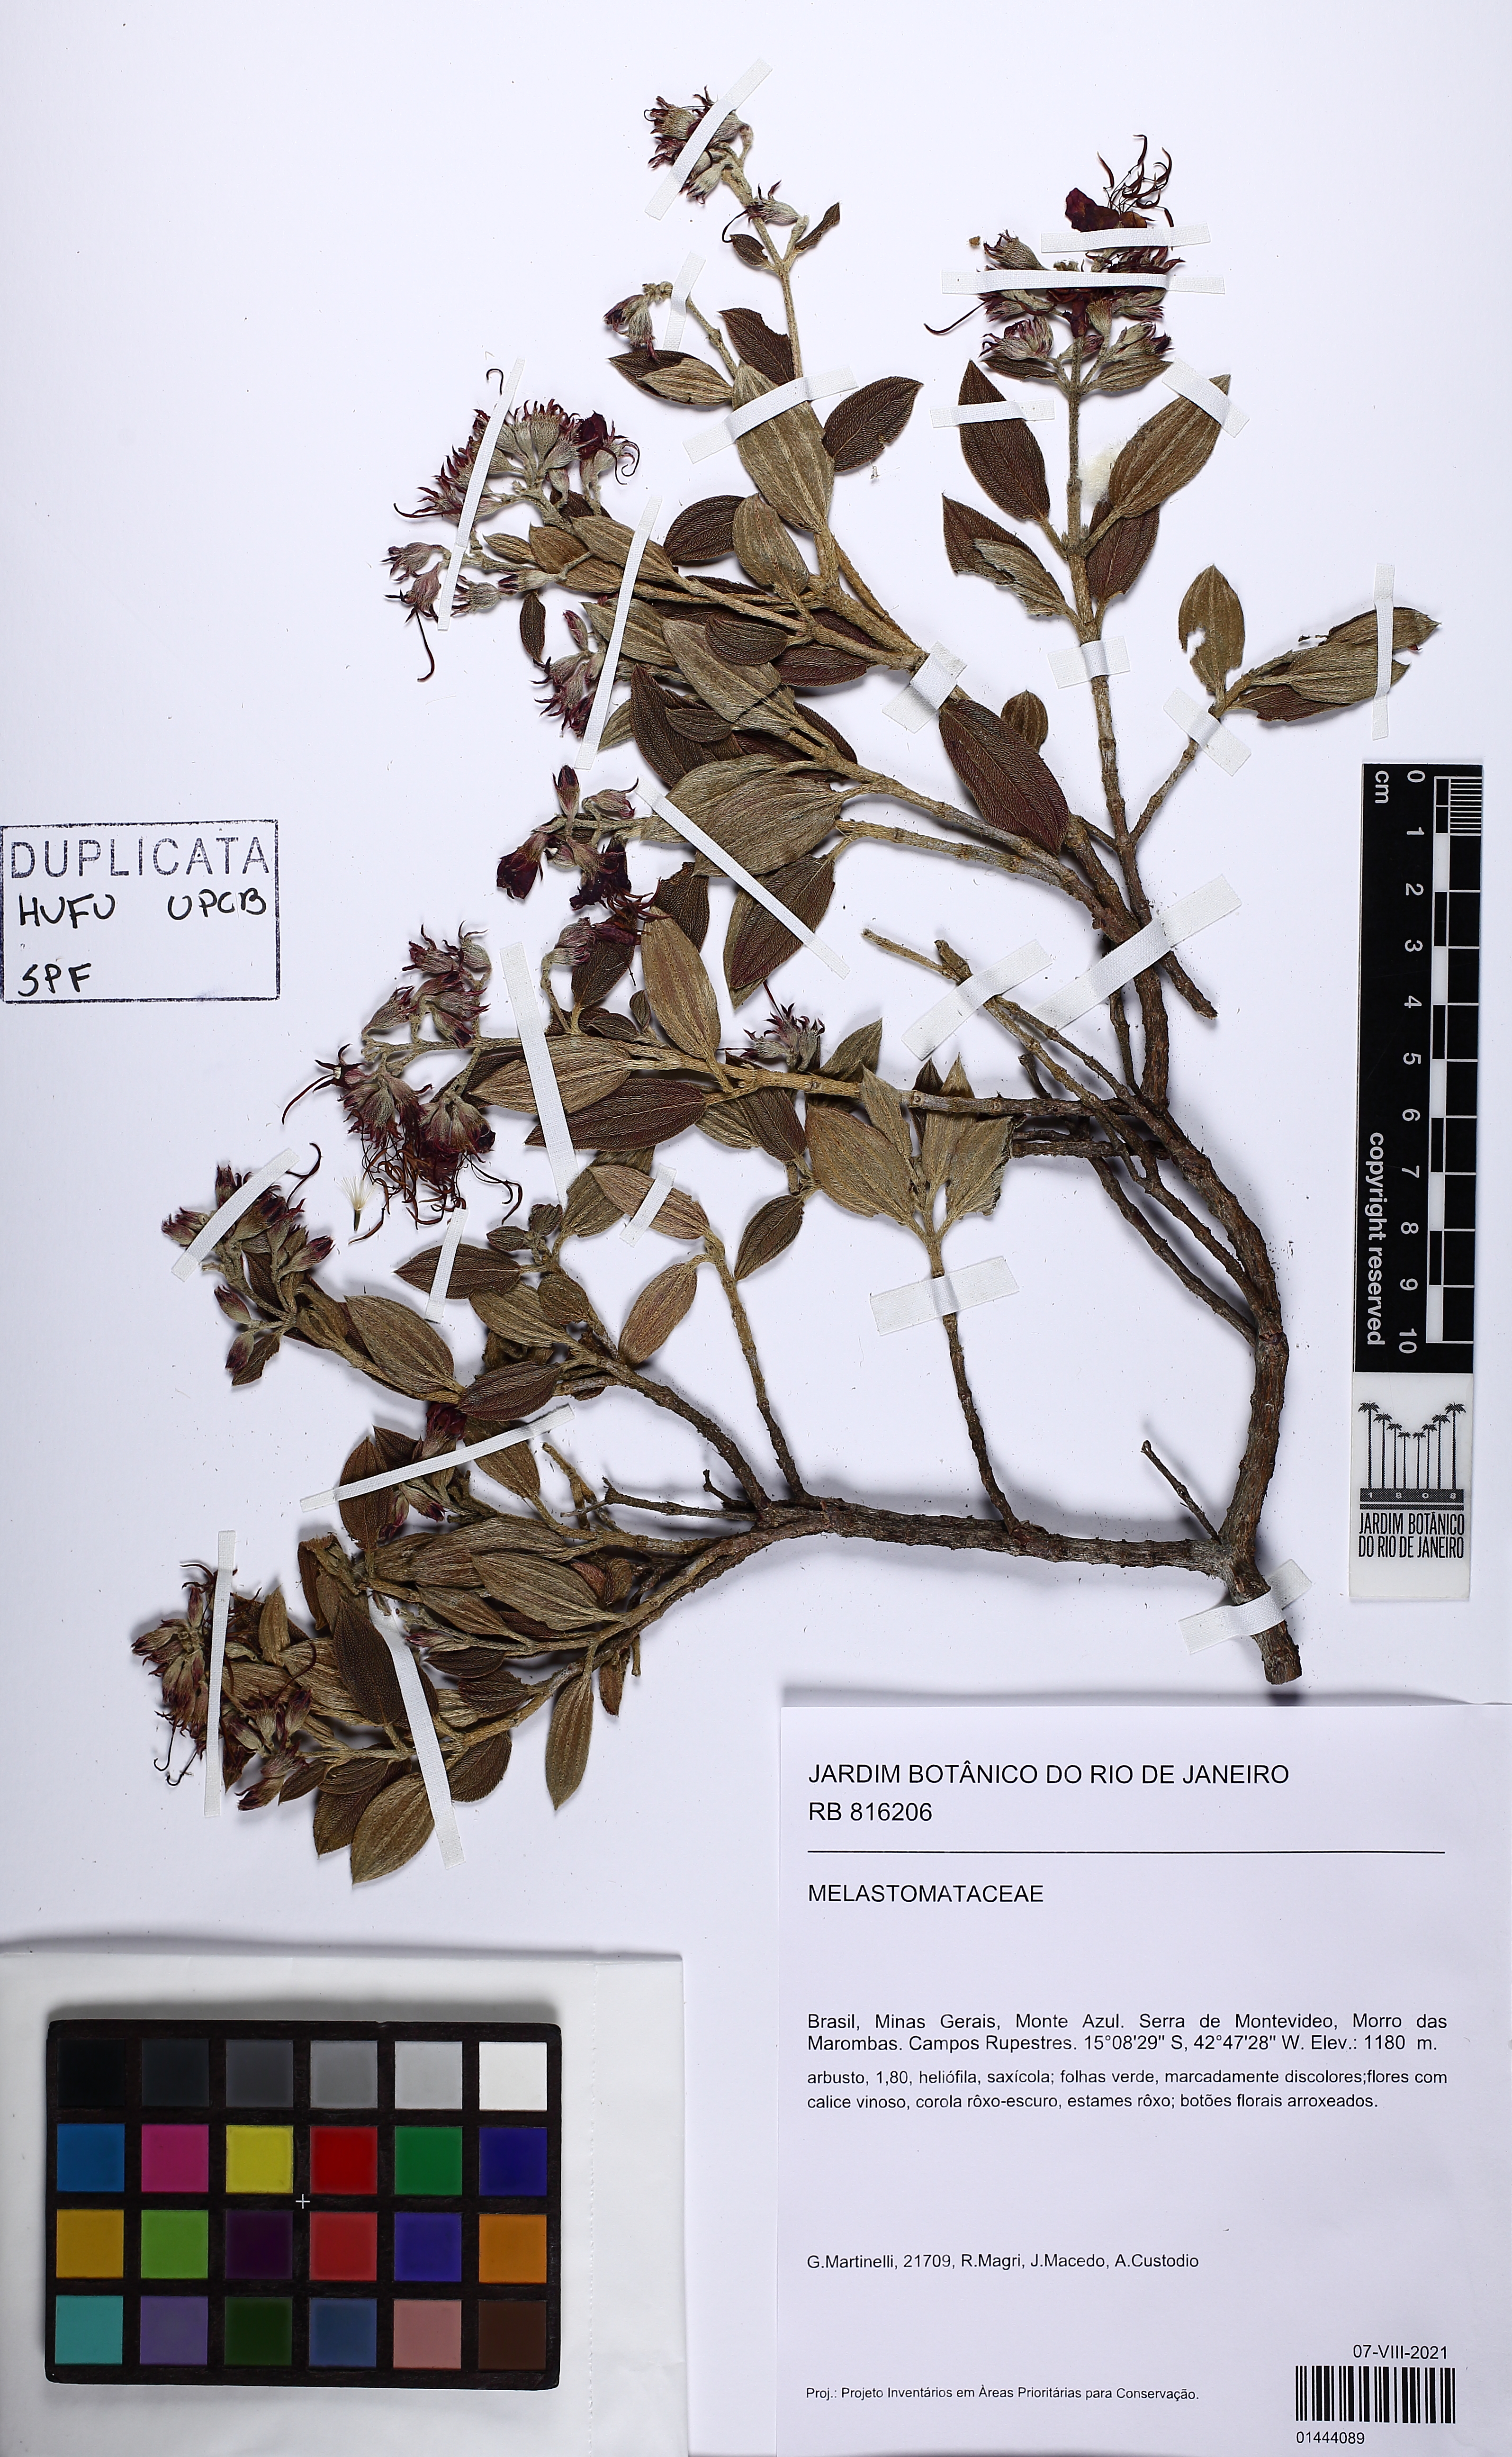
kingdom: Plantae
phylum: Tracheophyta
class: Magnoliopsida
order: Myrtales
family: Melastomataceae
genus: Pleroma
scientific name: Pleroma
